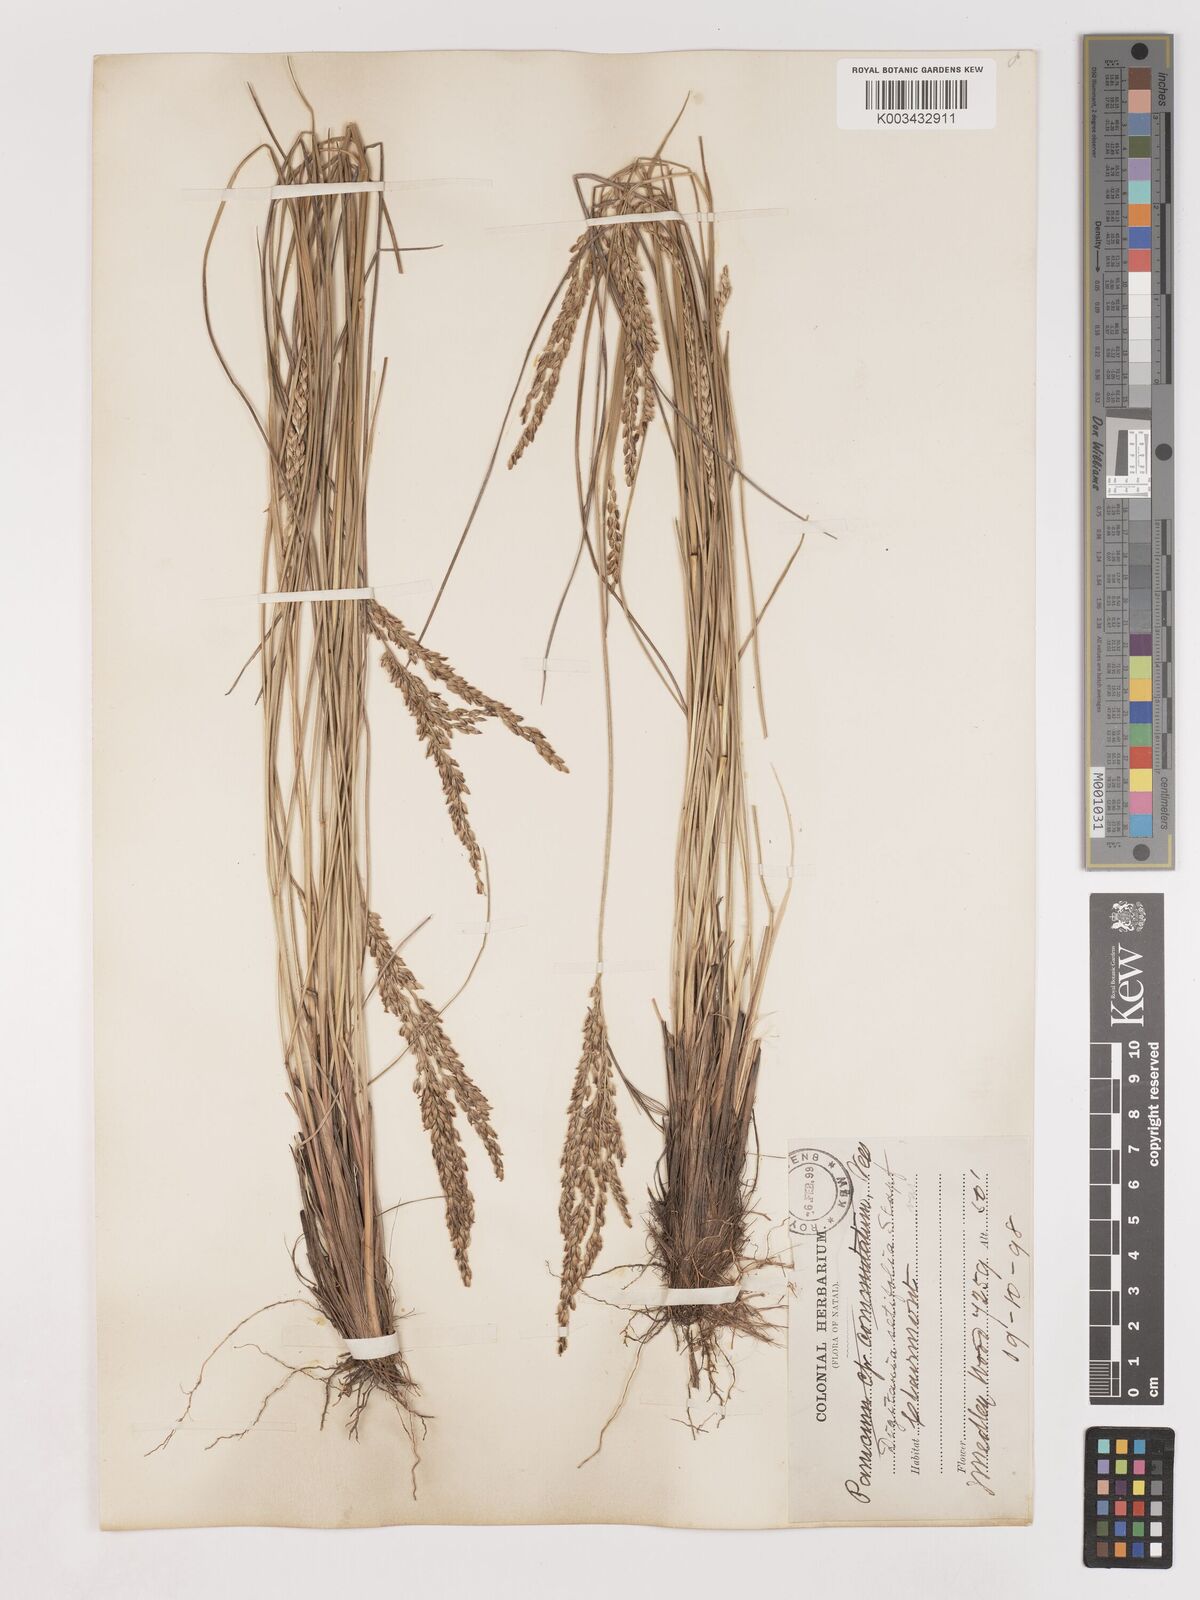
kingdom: Plantae
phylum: Tracheophyta
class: Liliopsida
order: Poales
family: Poaceae
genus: Digitaria
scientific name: Digitaria setifolia
